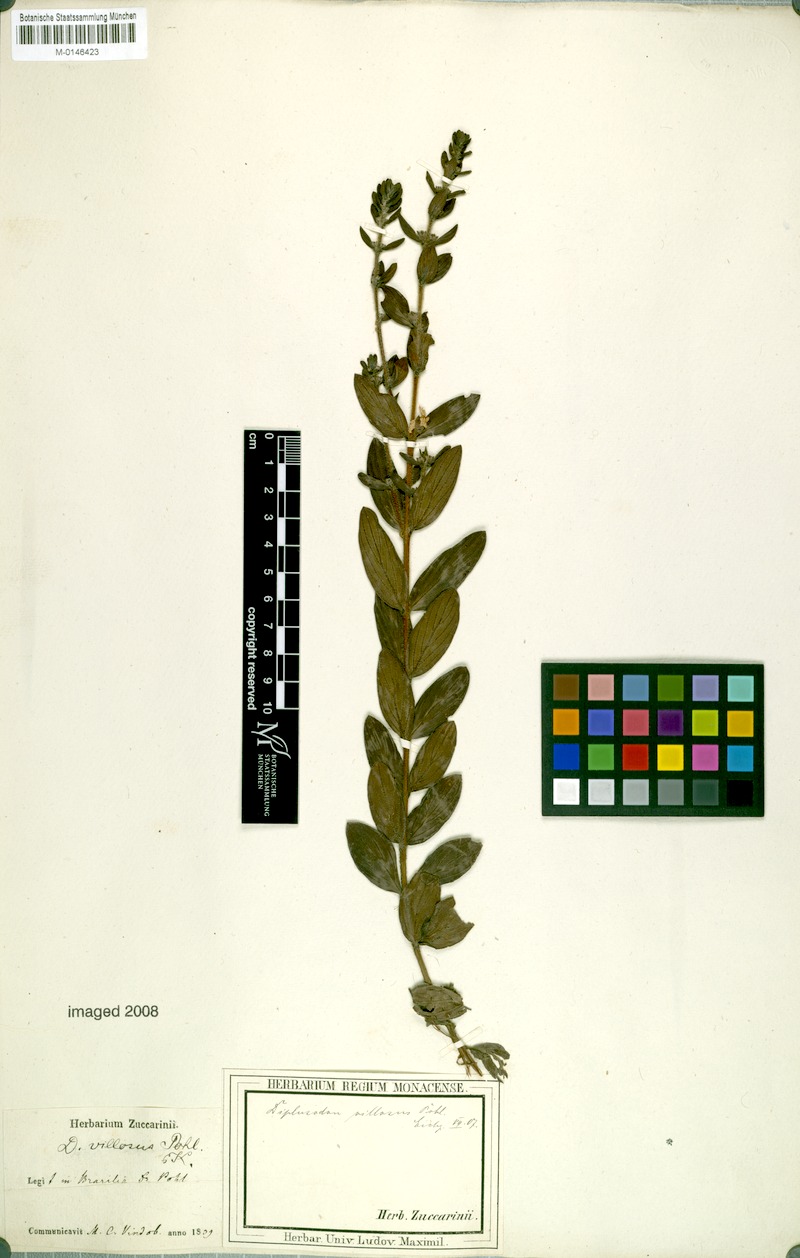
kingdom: Plantae
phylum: Tracheophyta
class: Magnoliopsida
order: Myrtales
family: Lythraceae
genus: Diplusodon
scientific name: Diplusodon villosus
